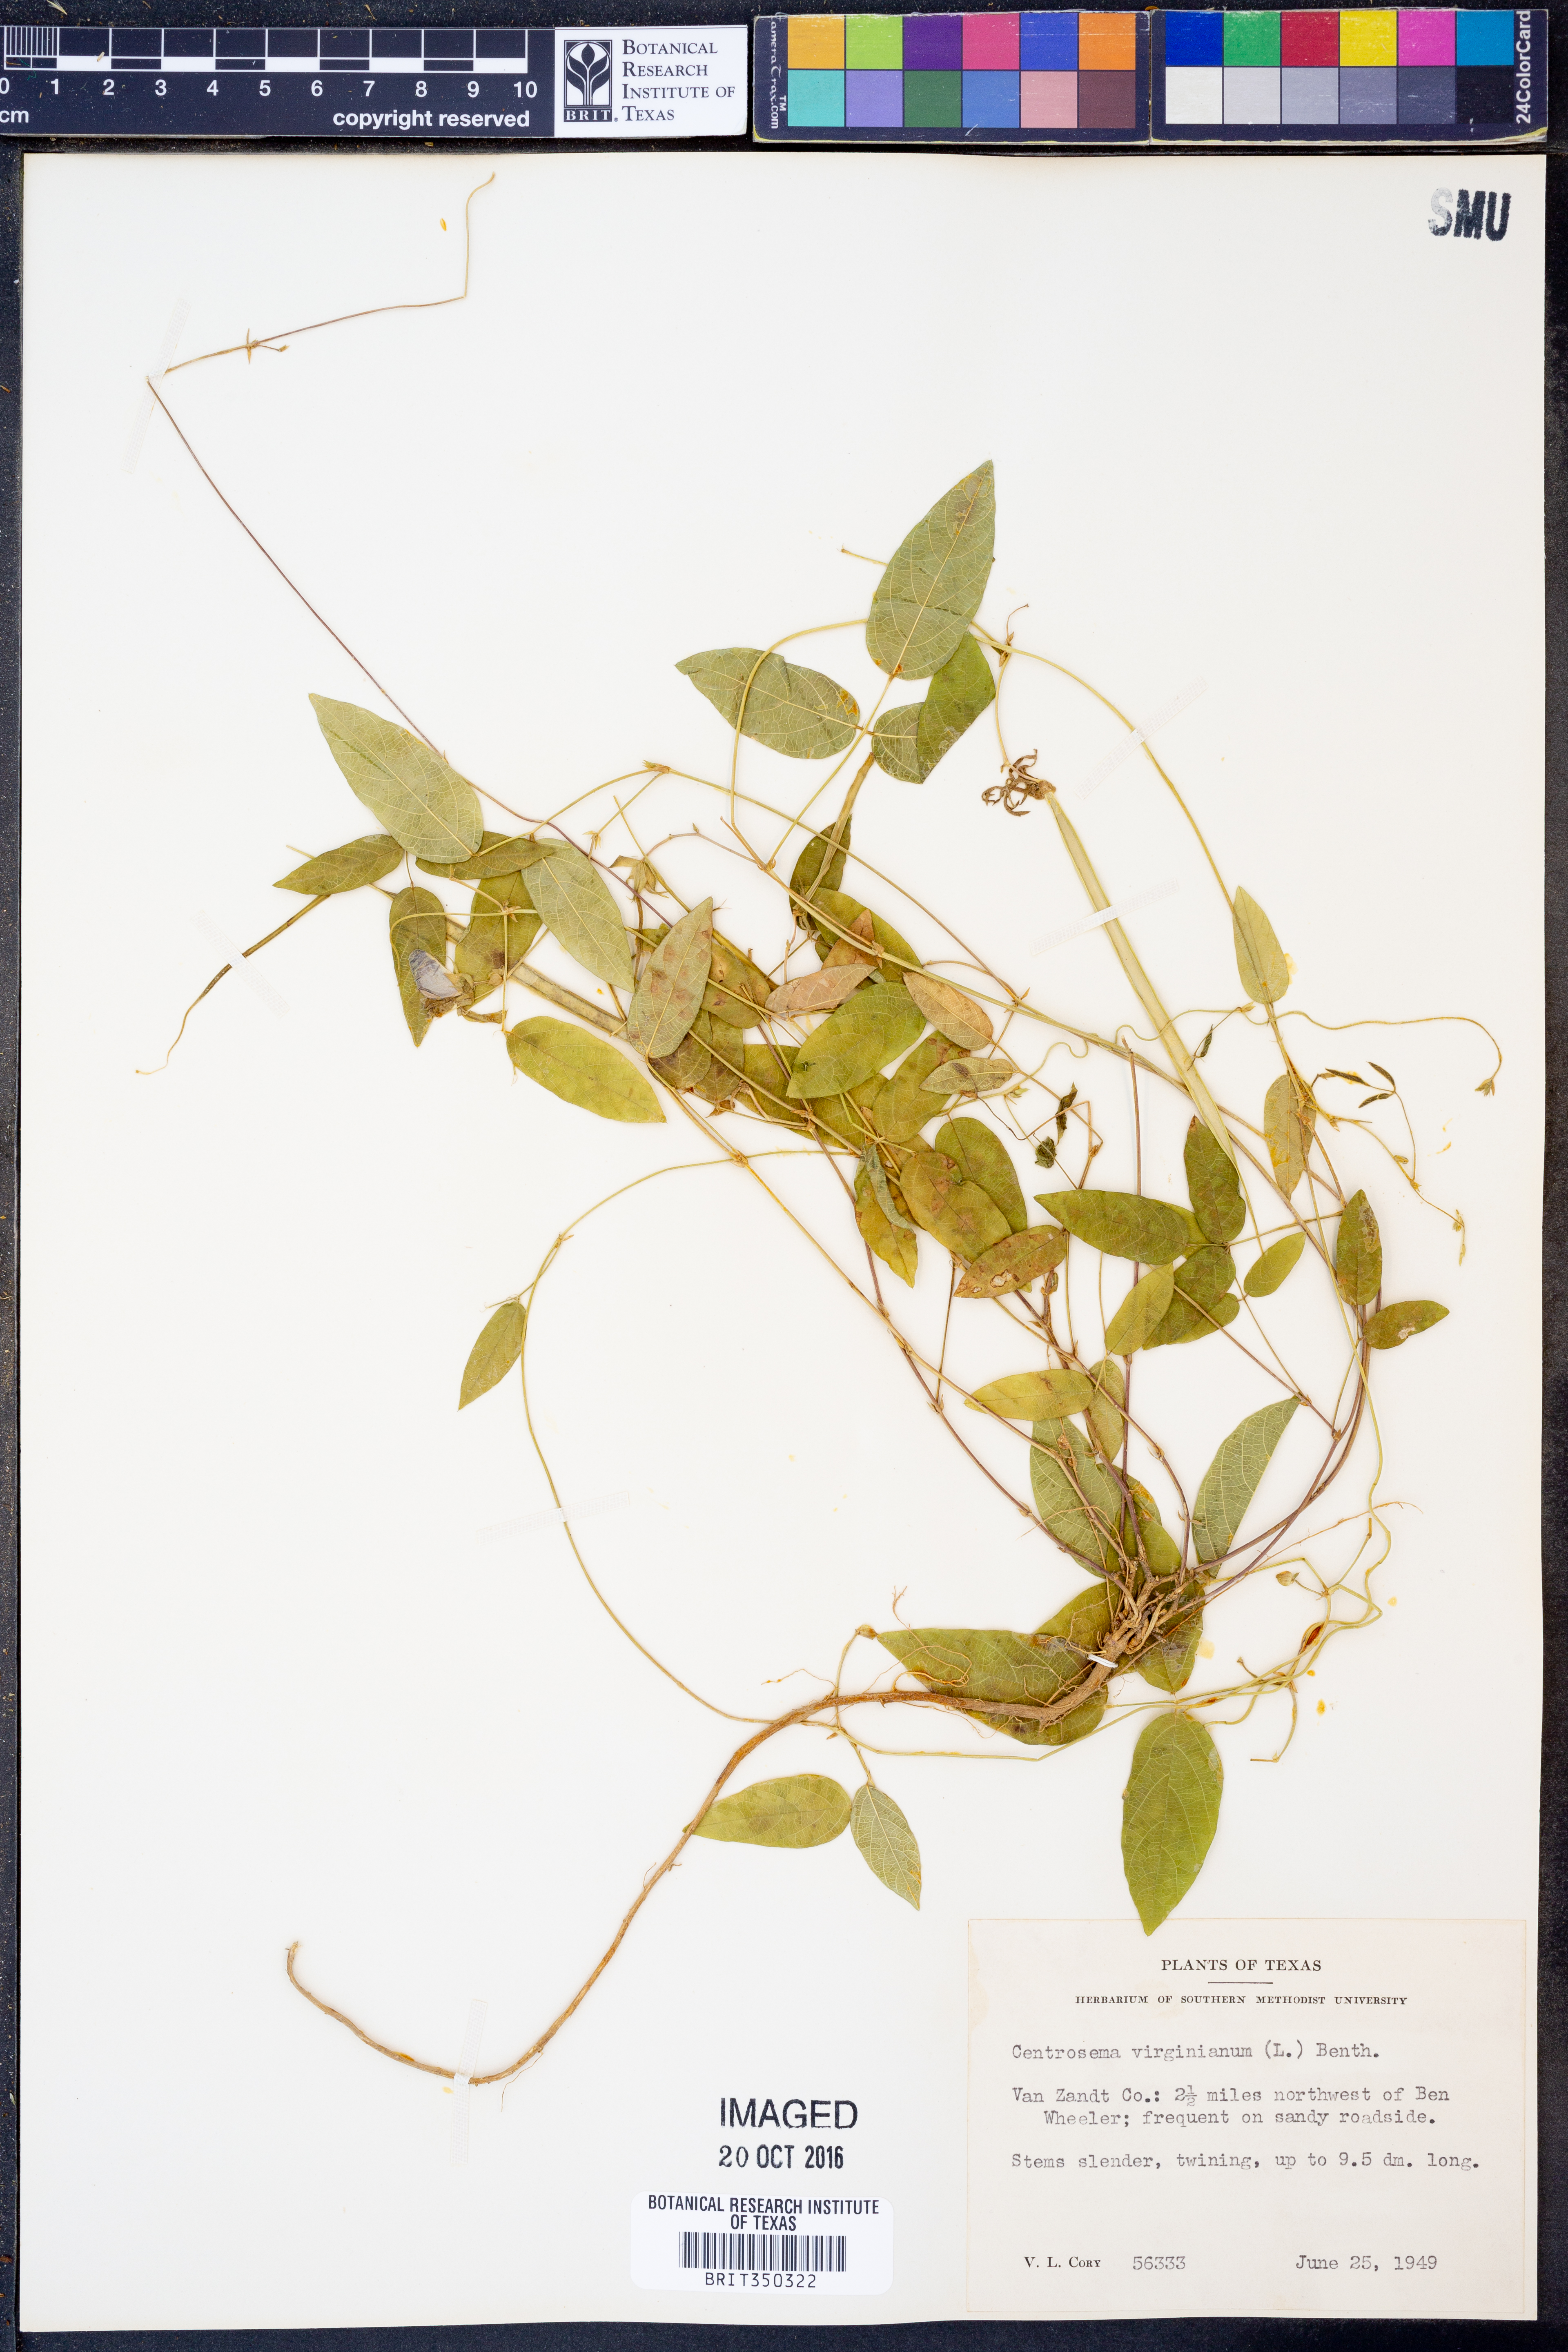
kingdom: Plantae
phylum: Tracheophyta
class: Magnoliopsida
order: Fabales
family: Fabaceae
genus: Centrosema
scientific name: Centrosema virginianum
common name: Butterfly-pea
